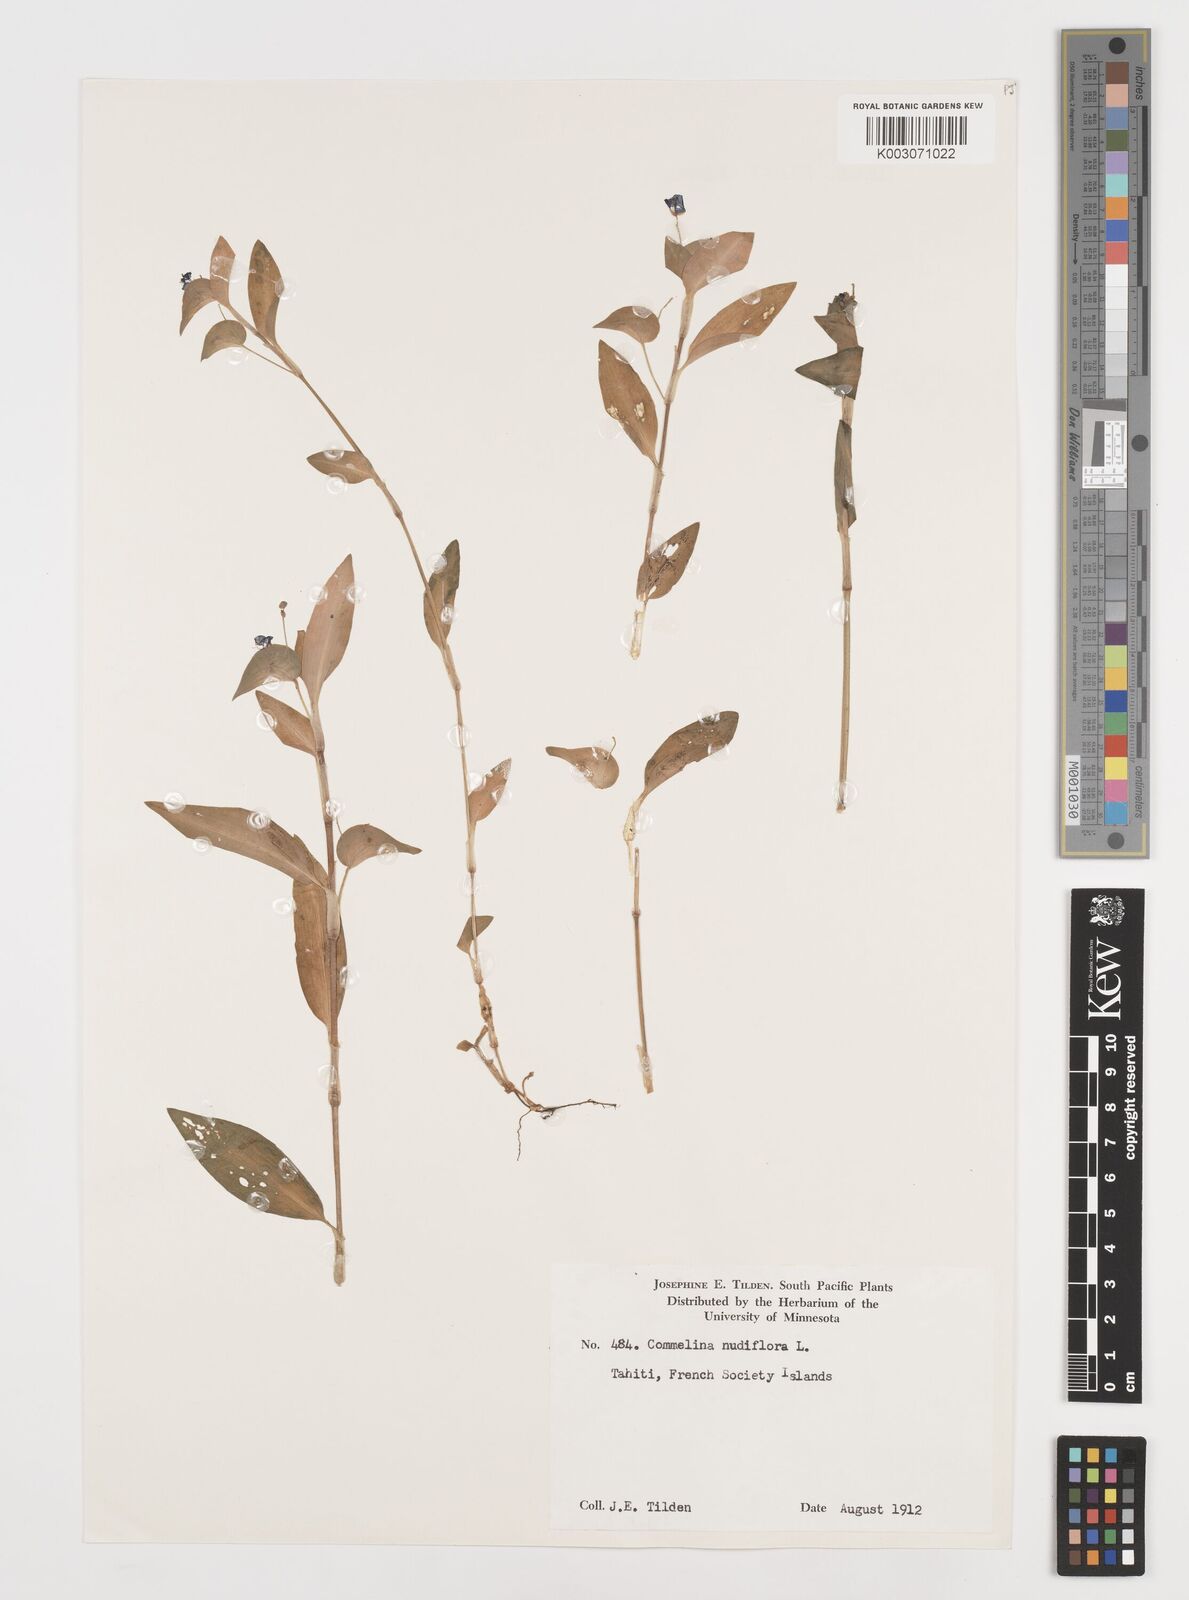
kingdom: Plantae
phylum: Tracheophyta
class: Liliopsida
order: Commelinales
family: Commelinaceae
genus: Commelina
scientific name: Commelina diffusa
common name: Climbing dayflower
